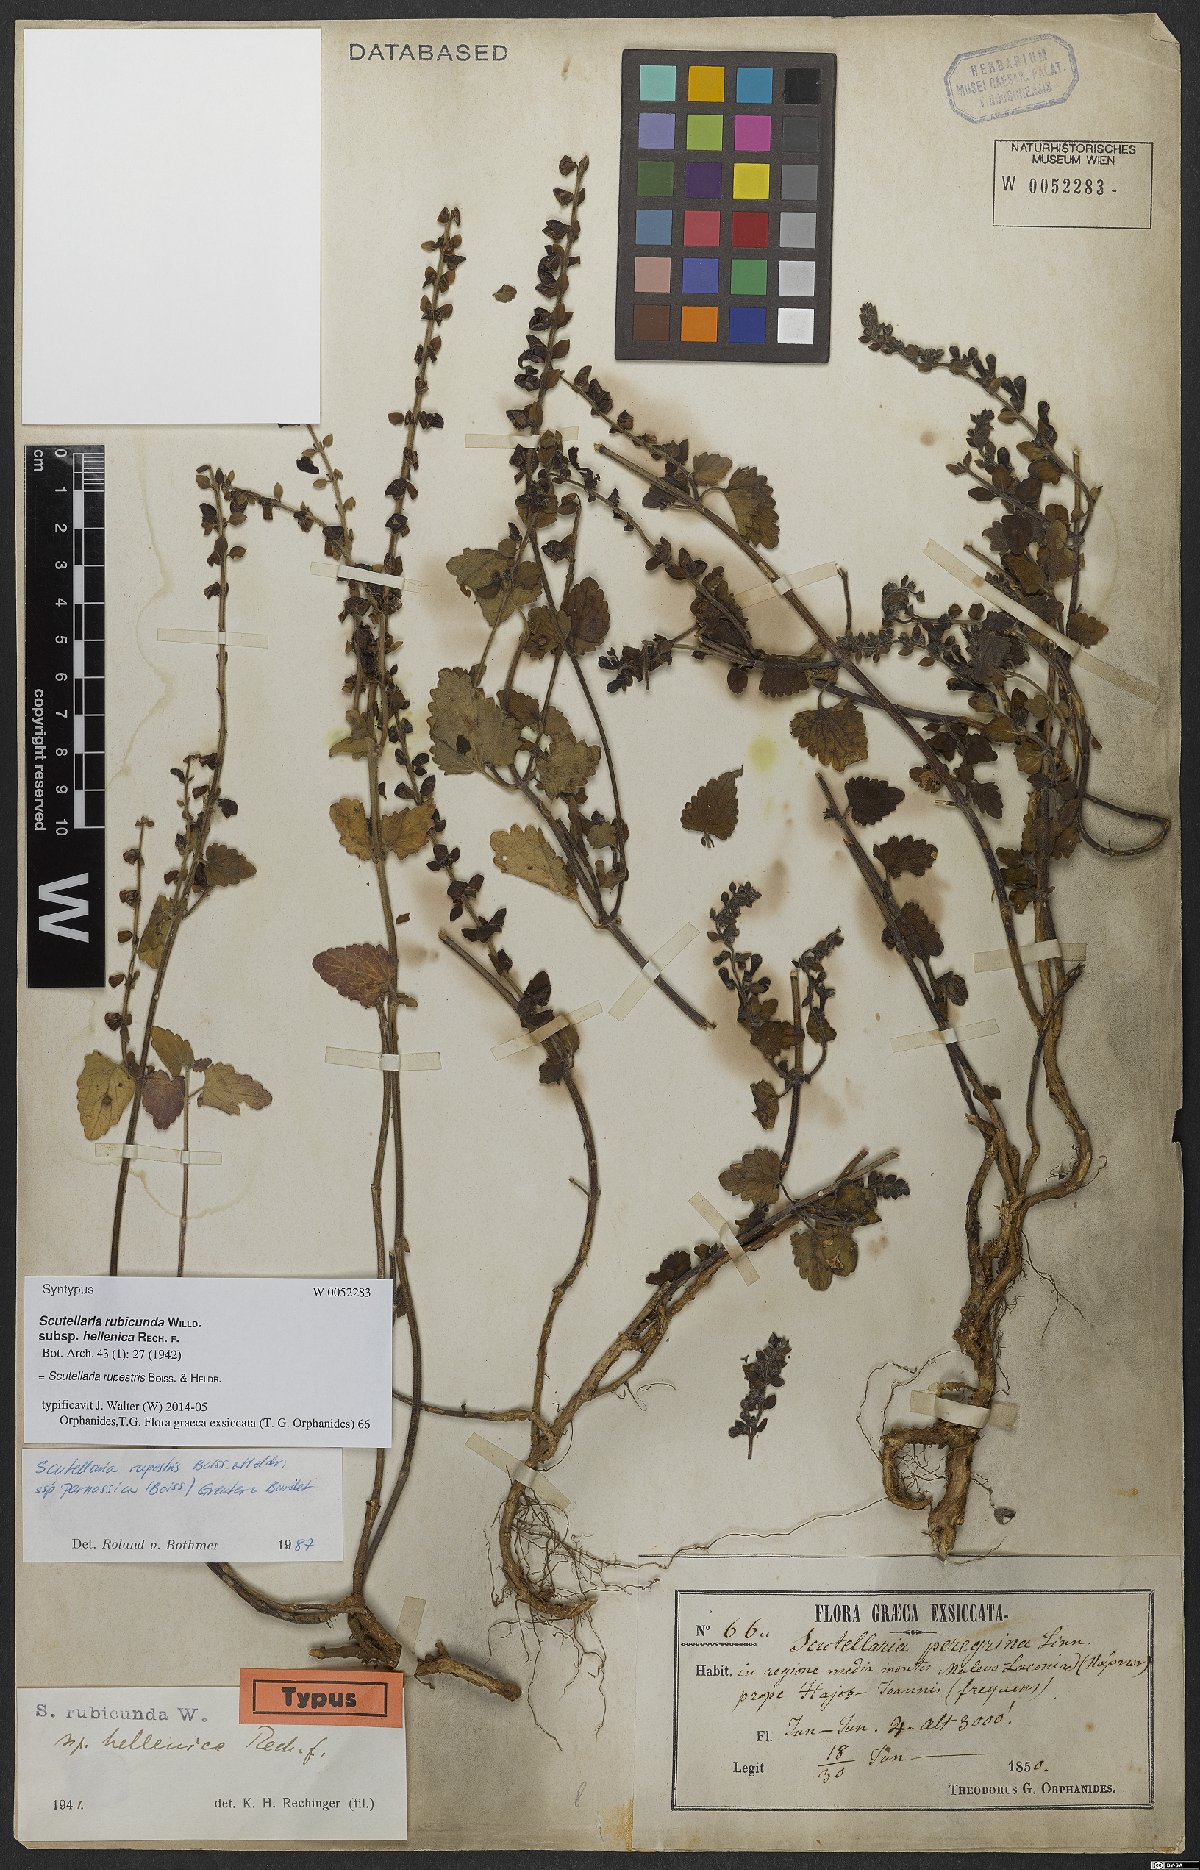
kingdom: Plantae
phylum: Tracheophyta
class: Magnoliopsida
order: Lamiales
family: Lamiaceae
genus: Scutellaria
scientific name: Scutellaria rupestris
